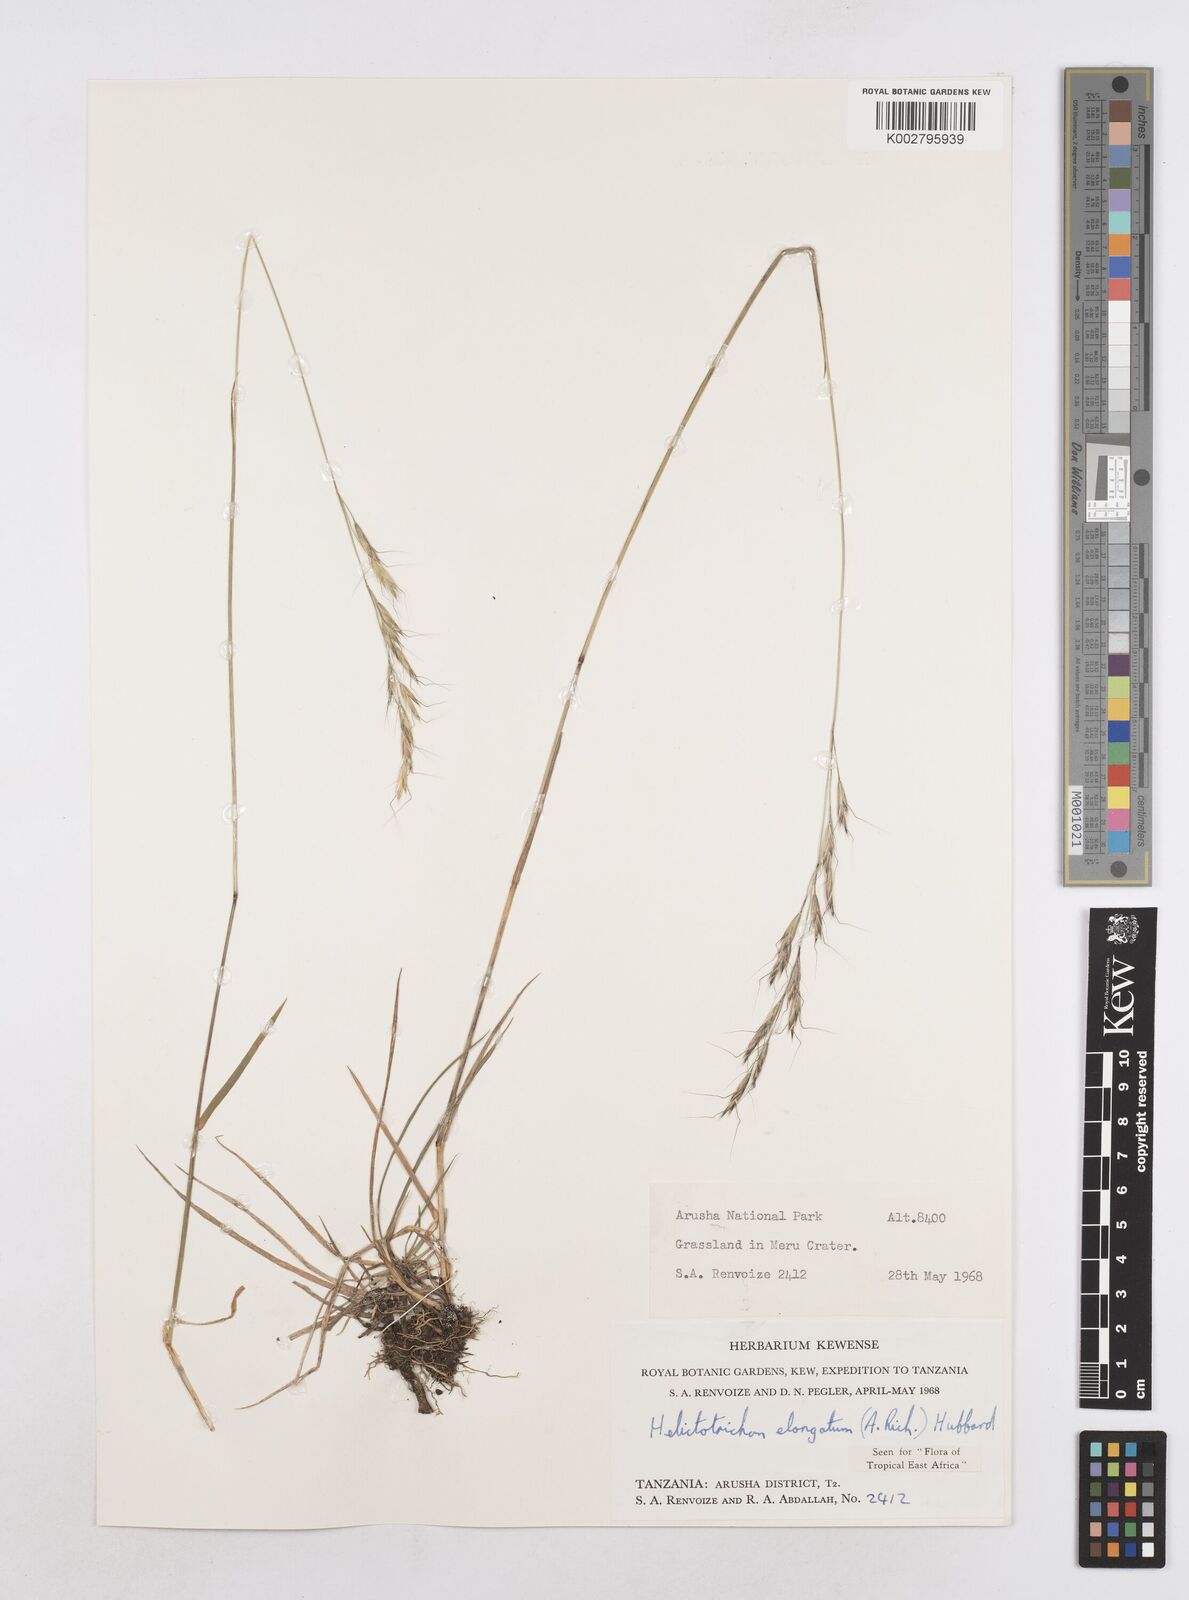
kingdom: Plantae
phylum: Tracheophyta
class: Liliopsida
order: Poales
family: Poaceae
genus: Trisetopsis
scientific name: Trisetopsis elongata
